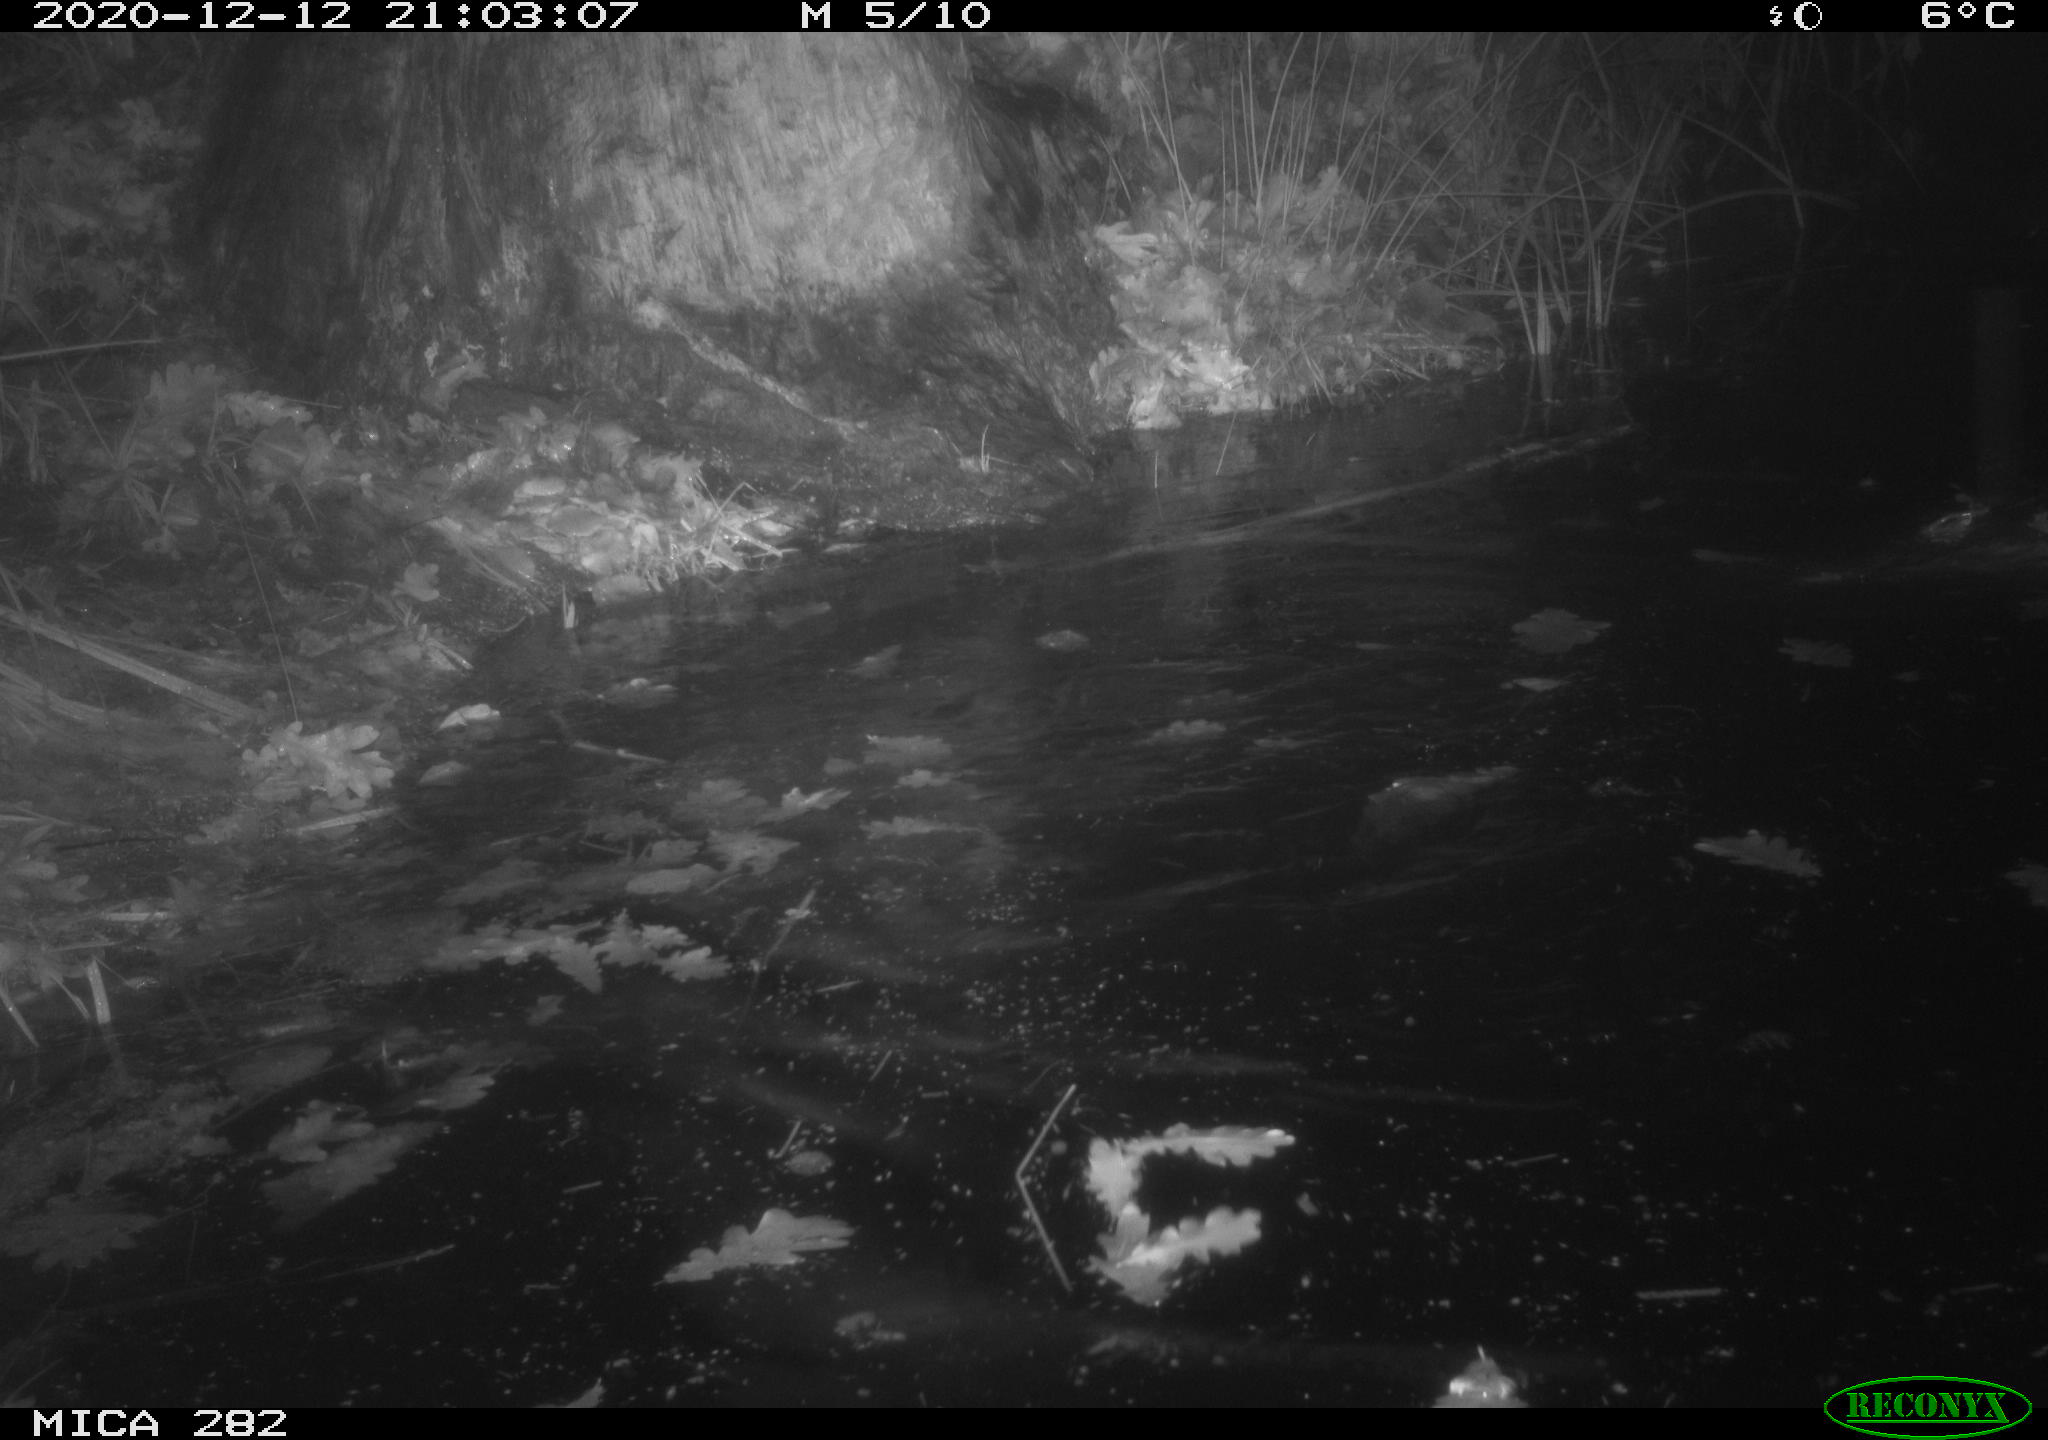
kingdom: Animalia
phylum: Chordata
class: Mammalia
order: Rodentia
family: Castoridae
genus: Castor
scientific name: Castor fiber
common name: Eurasian beaver
